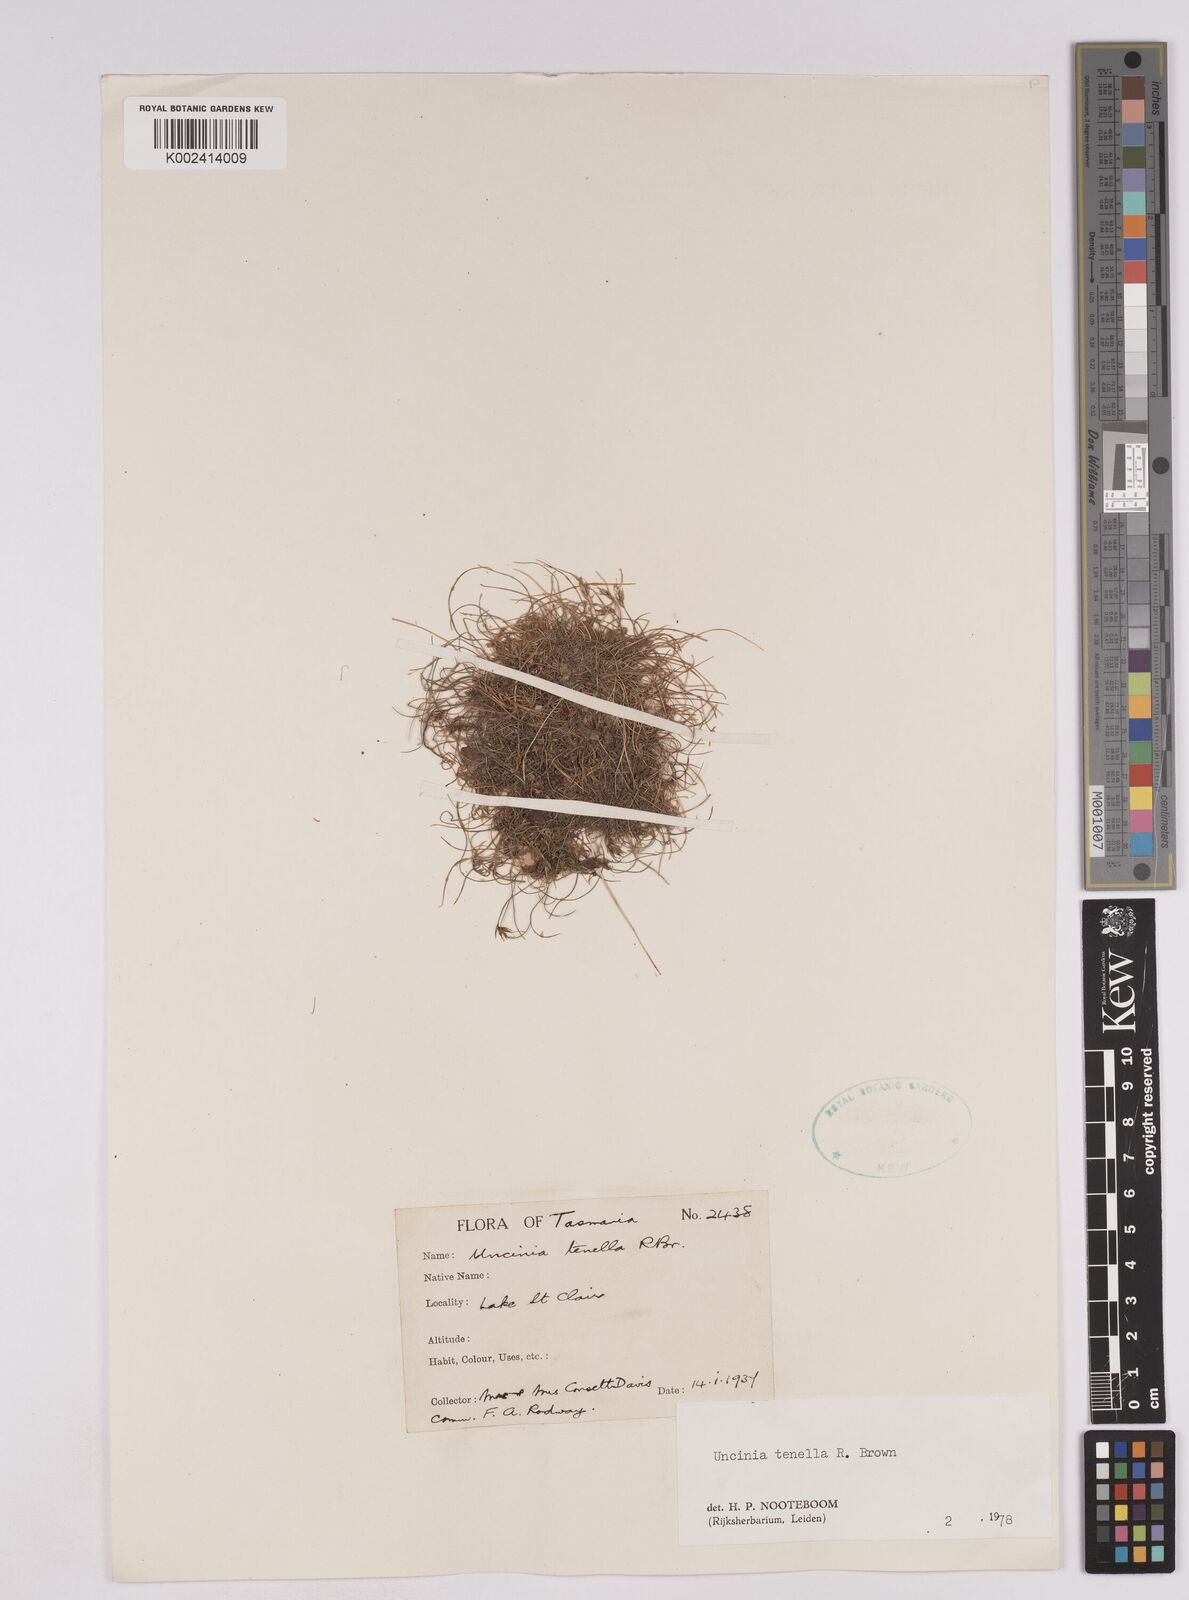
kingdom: Plantae
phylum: Tracheophyta
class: Liliopsida
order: Poales
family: Cyperaceae
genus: Carex
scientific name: Carex austrotenella
